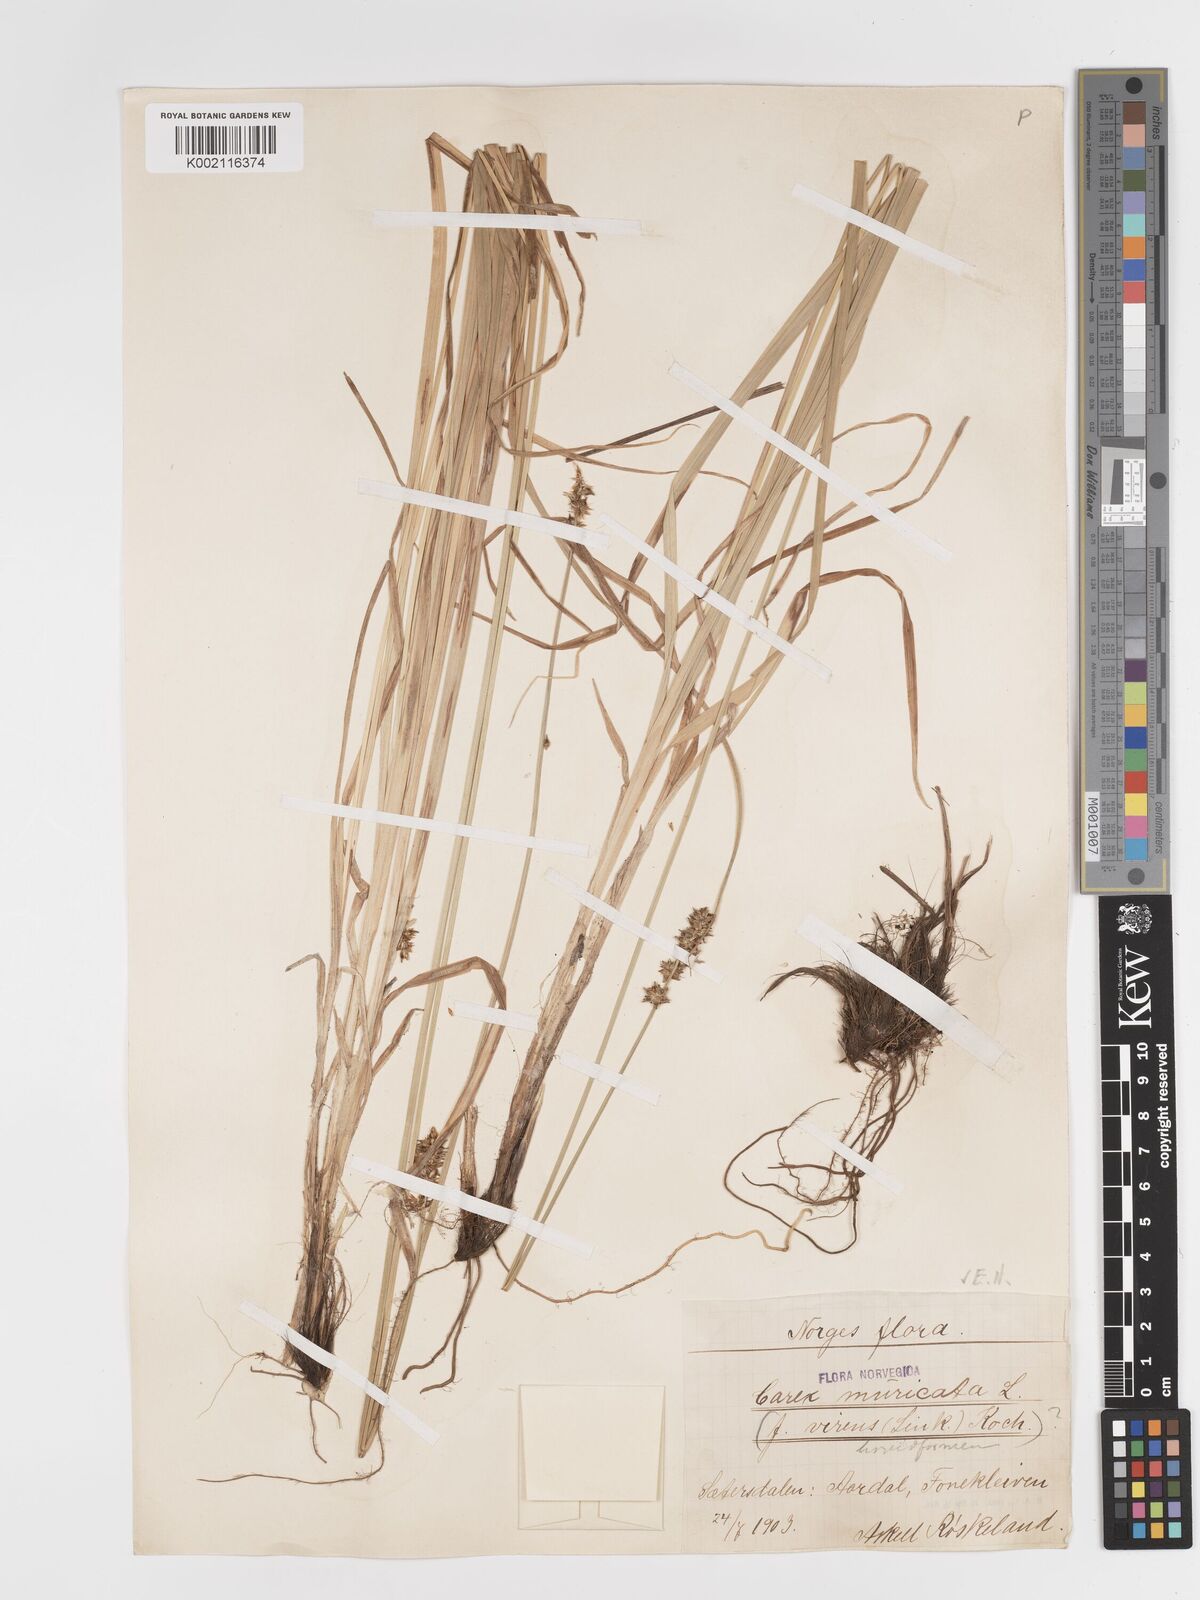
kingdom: Plantae
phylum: Tracheophyta
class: Liliopsida
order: Poales
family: Cyperaceae
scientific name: Cyperaceae
